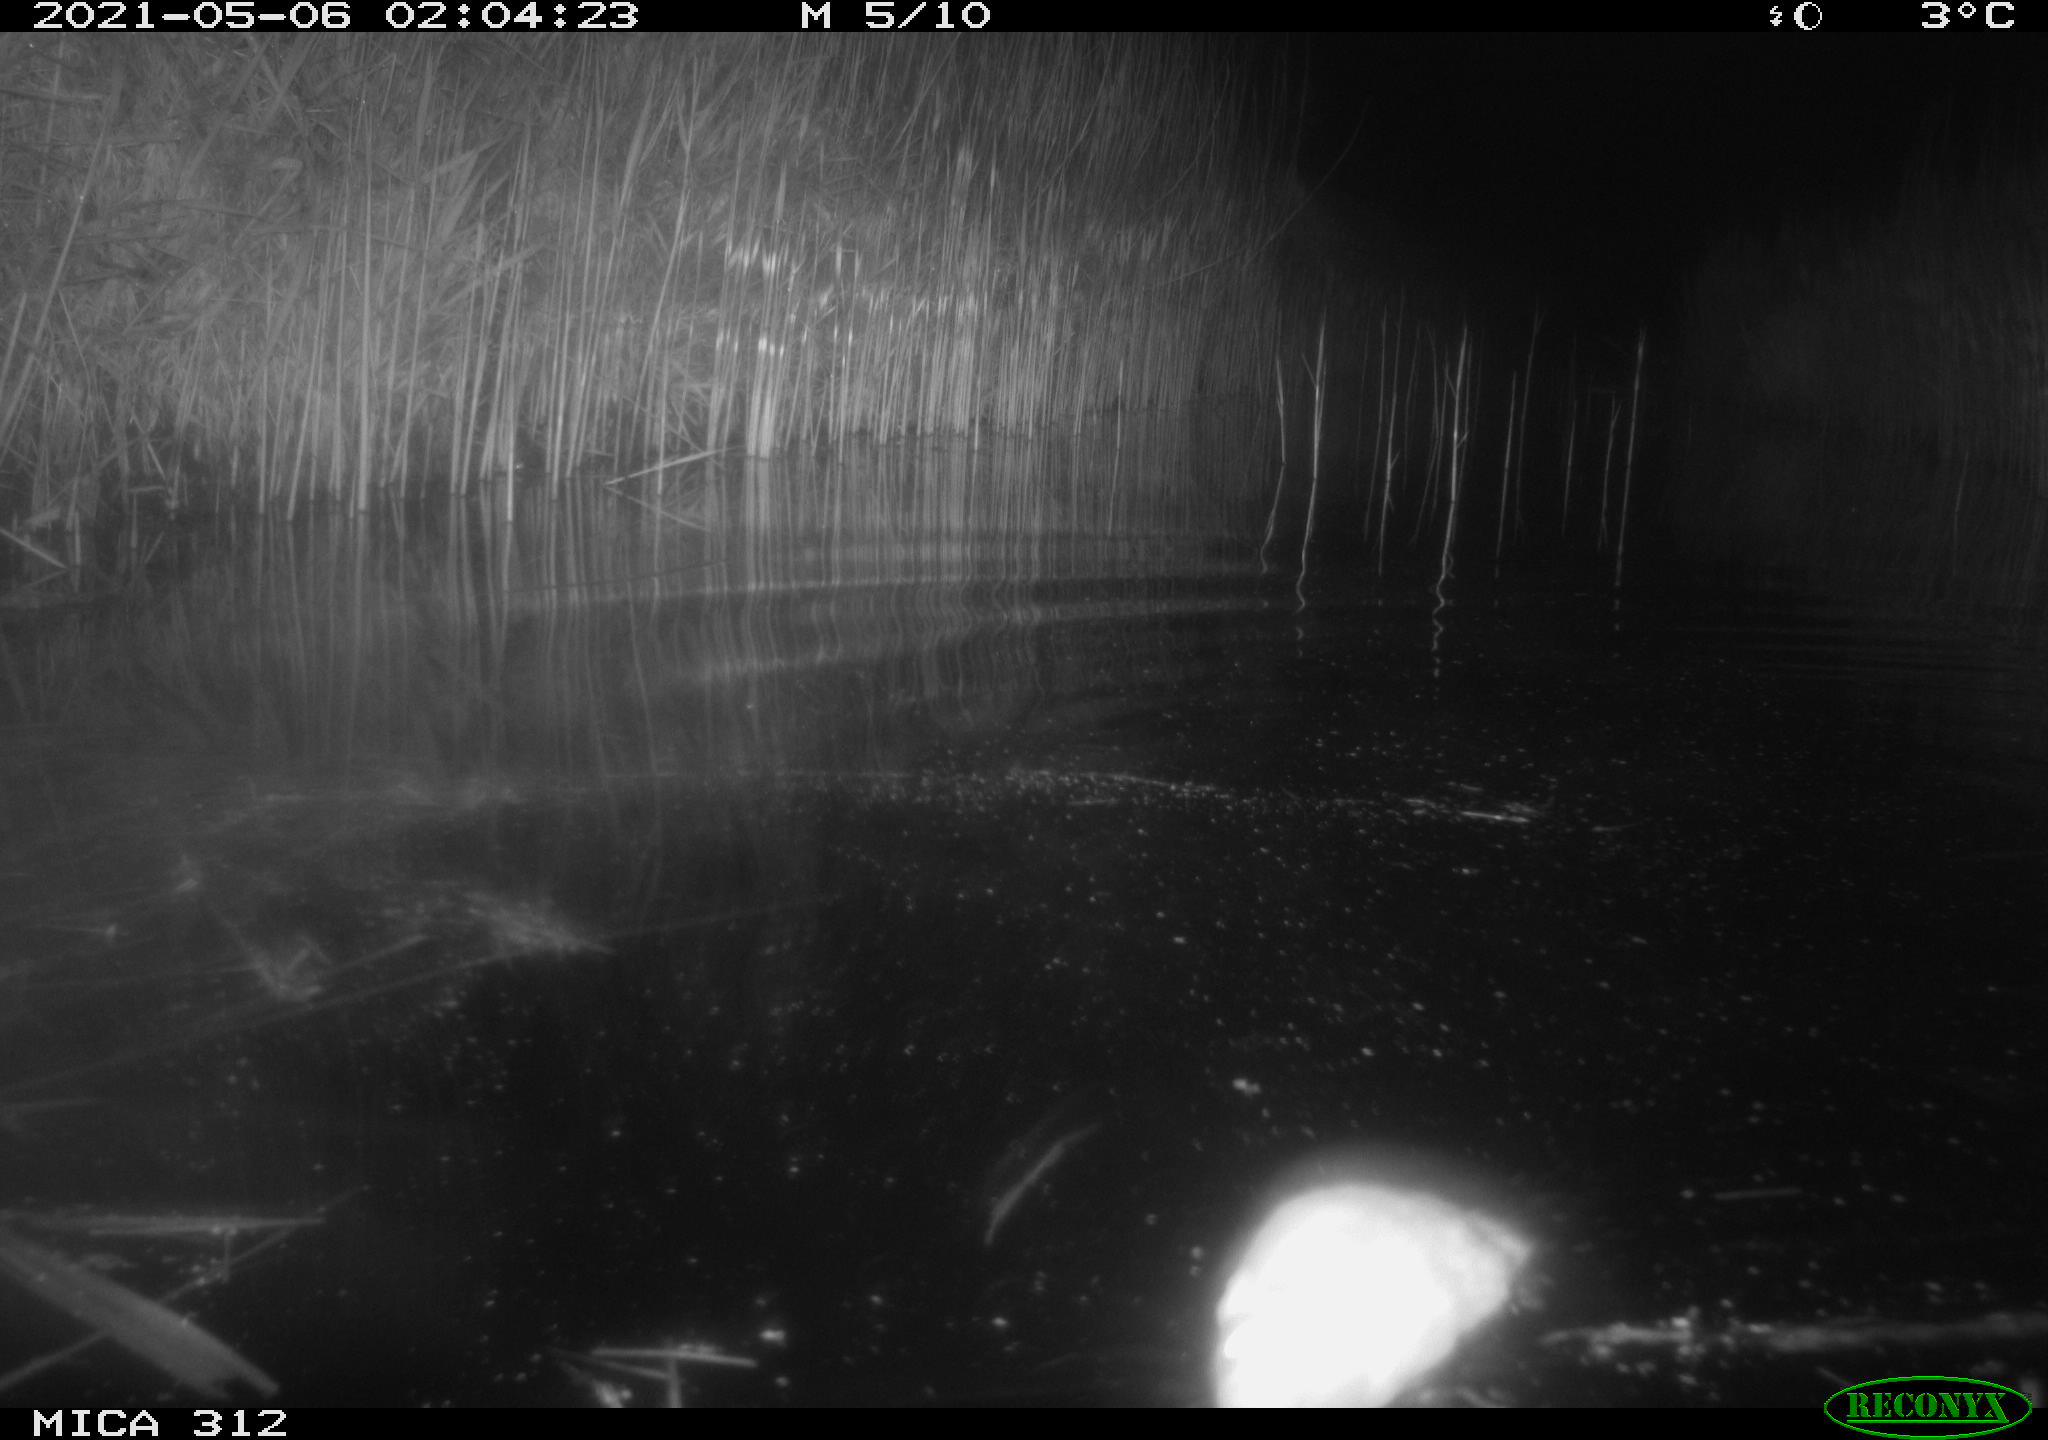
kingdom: Animalia
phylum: Chordata
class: Mammalia
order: Rodentia
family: Cricetidae
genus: Ondatra
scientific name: Ondatra zibethicus
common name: Muskrat
